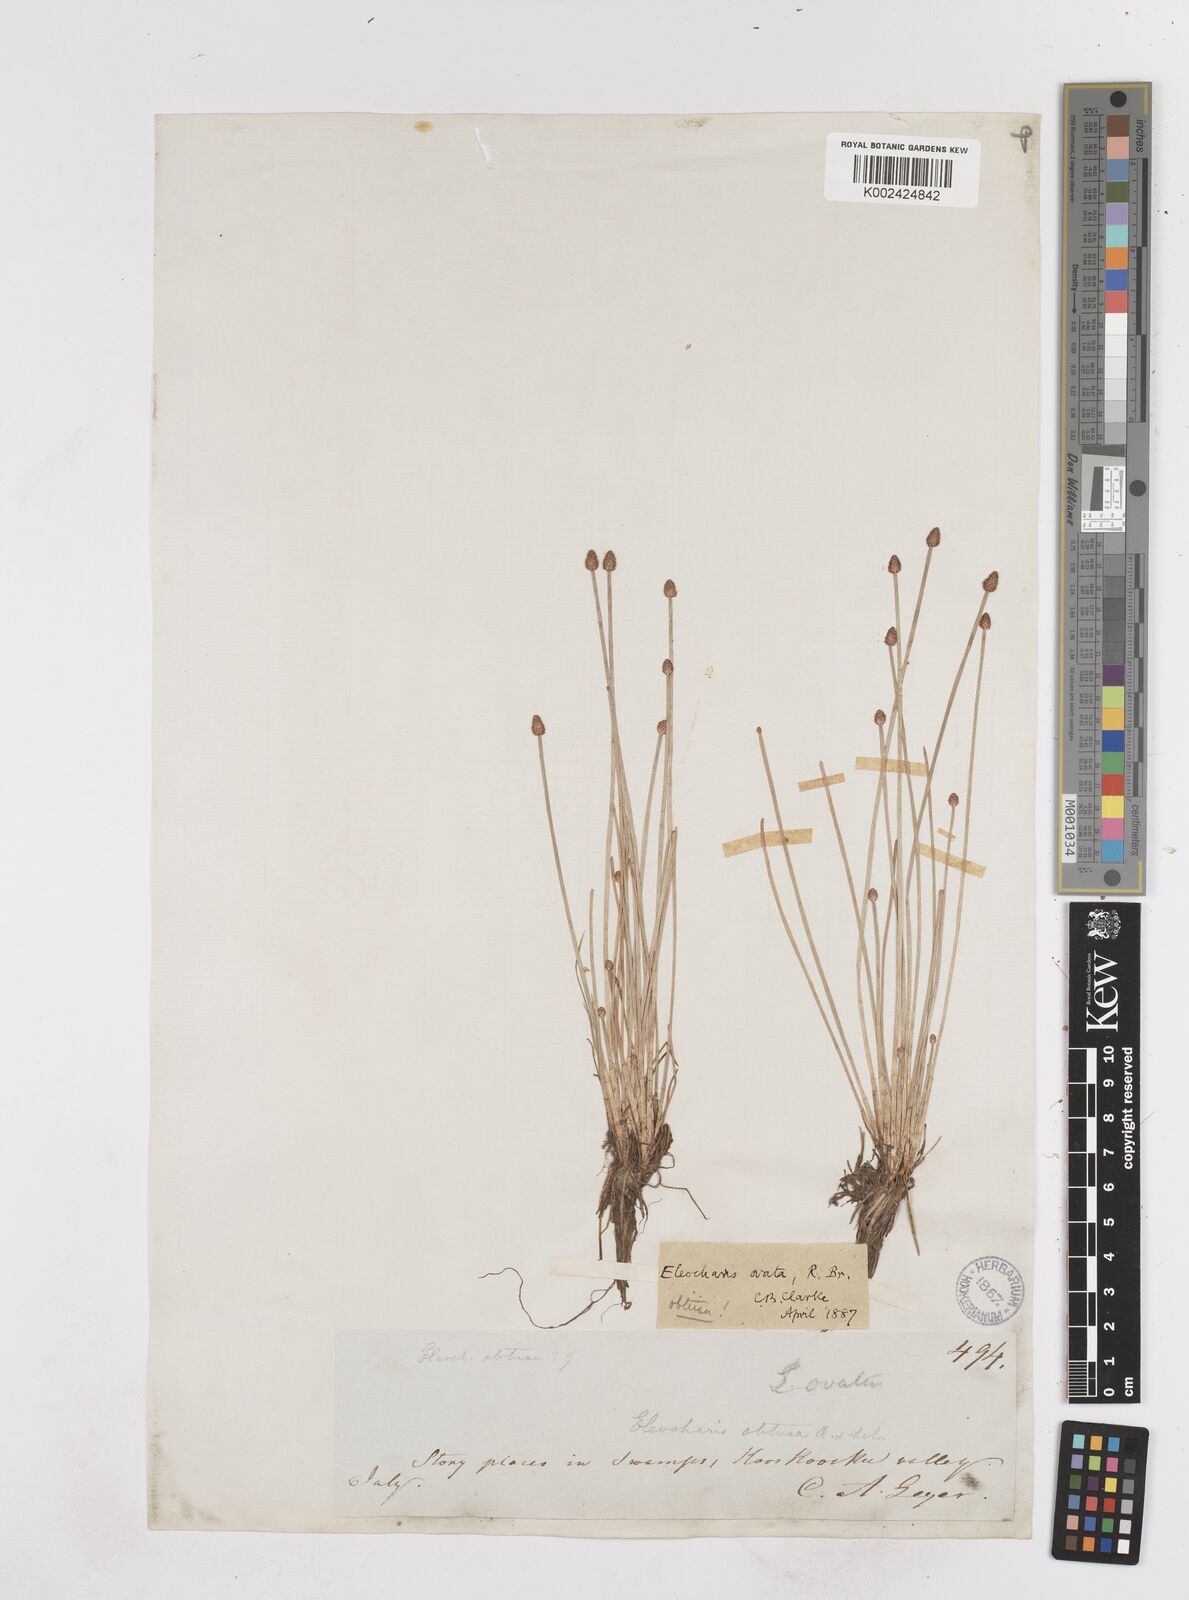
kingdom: Plantae
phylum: Tracheophyta
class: Liliopsida
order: Poales
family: Cyperaceae
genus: Eleocharis
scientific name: Eleocharis obtusa
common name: Blunt spikerush
